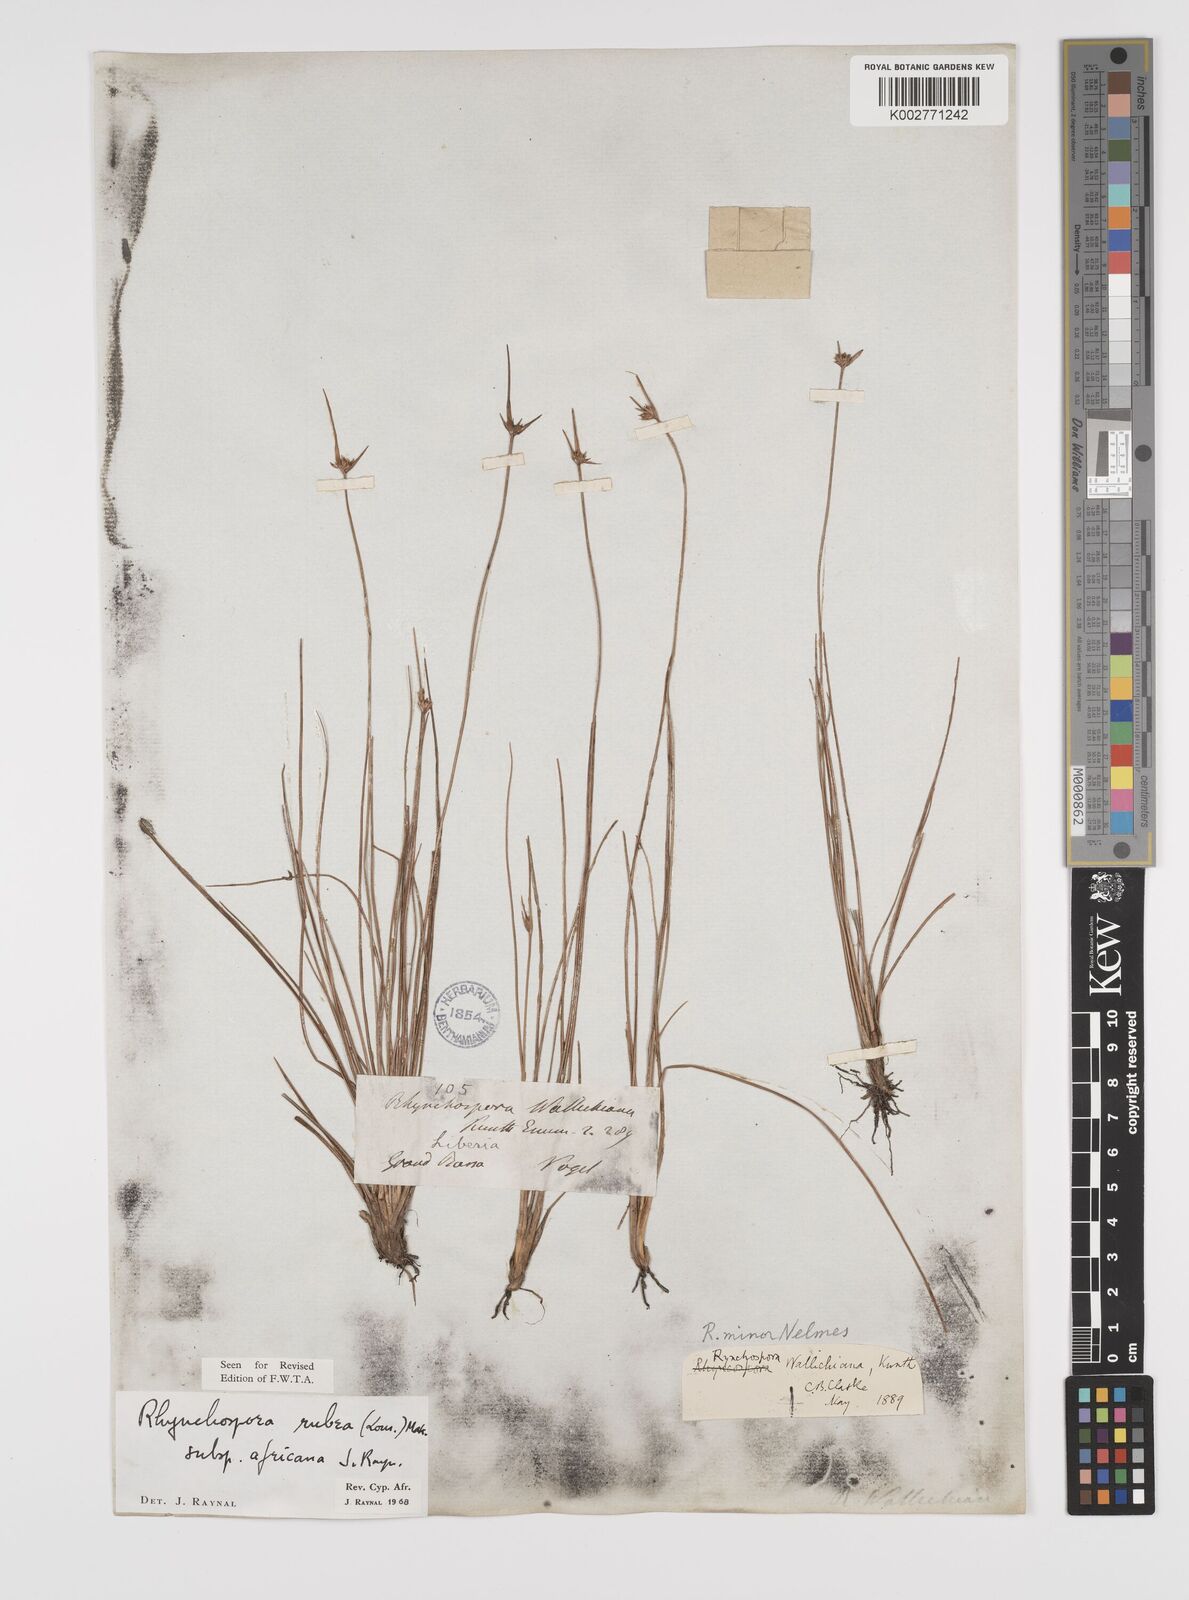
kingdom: Plantae
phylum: Tracheophyta
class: Liliopsida
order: Poales
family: Cyperaceae
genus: Rhynchospora
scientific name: Rhynchospora rubra
